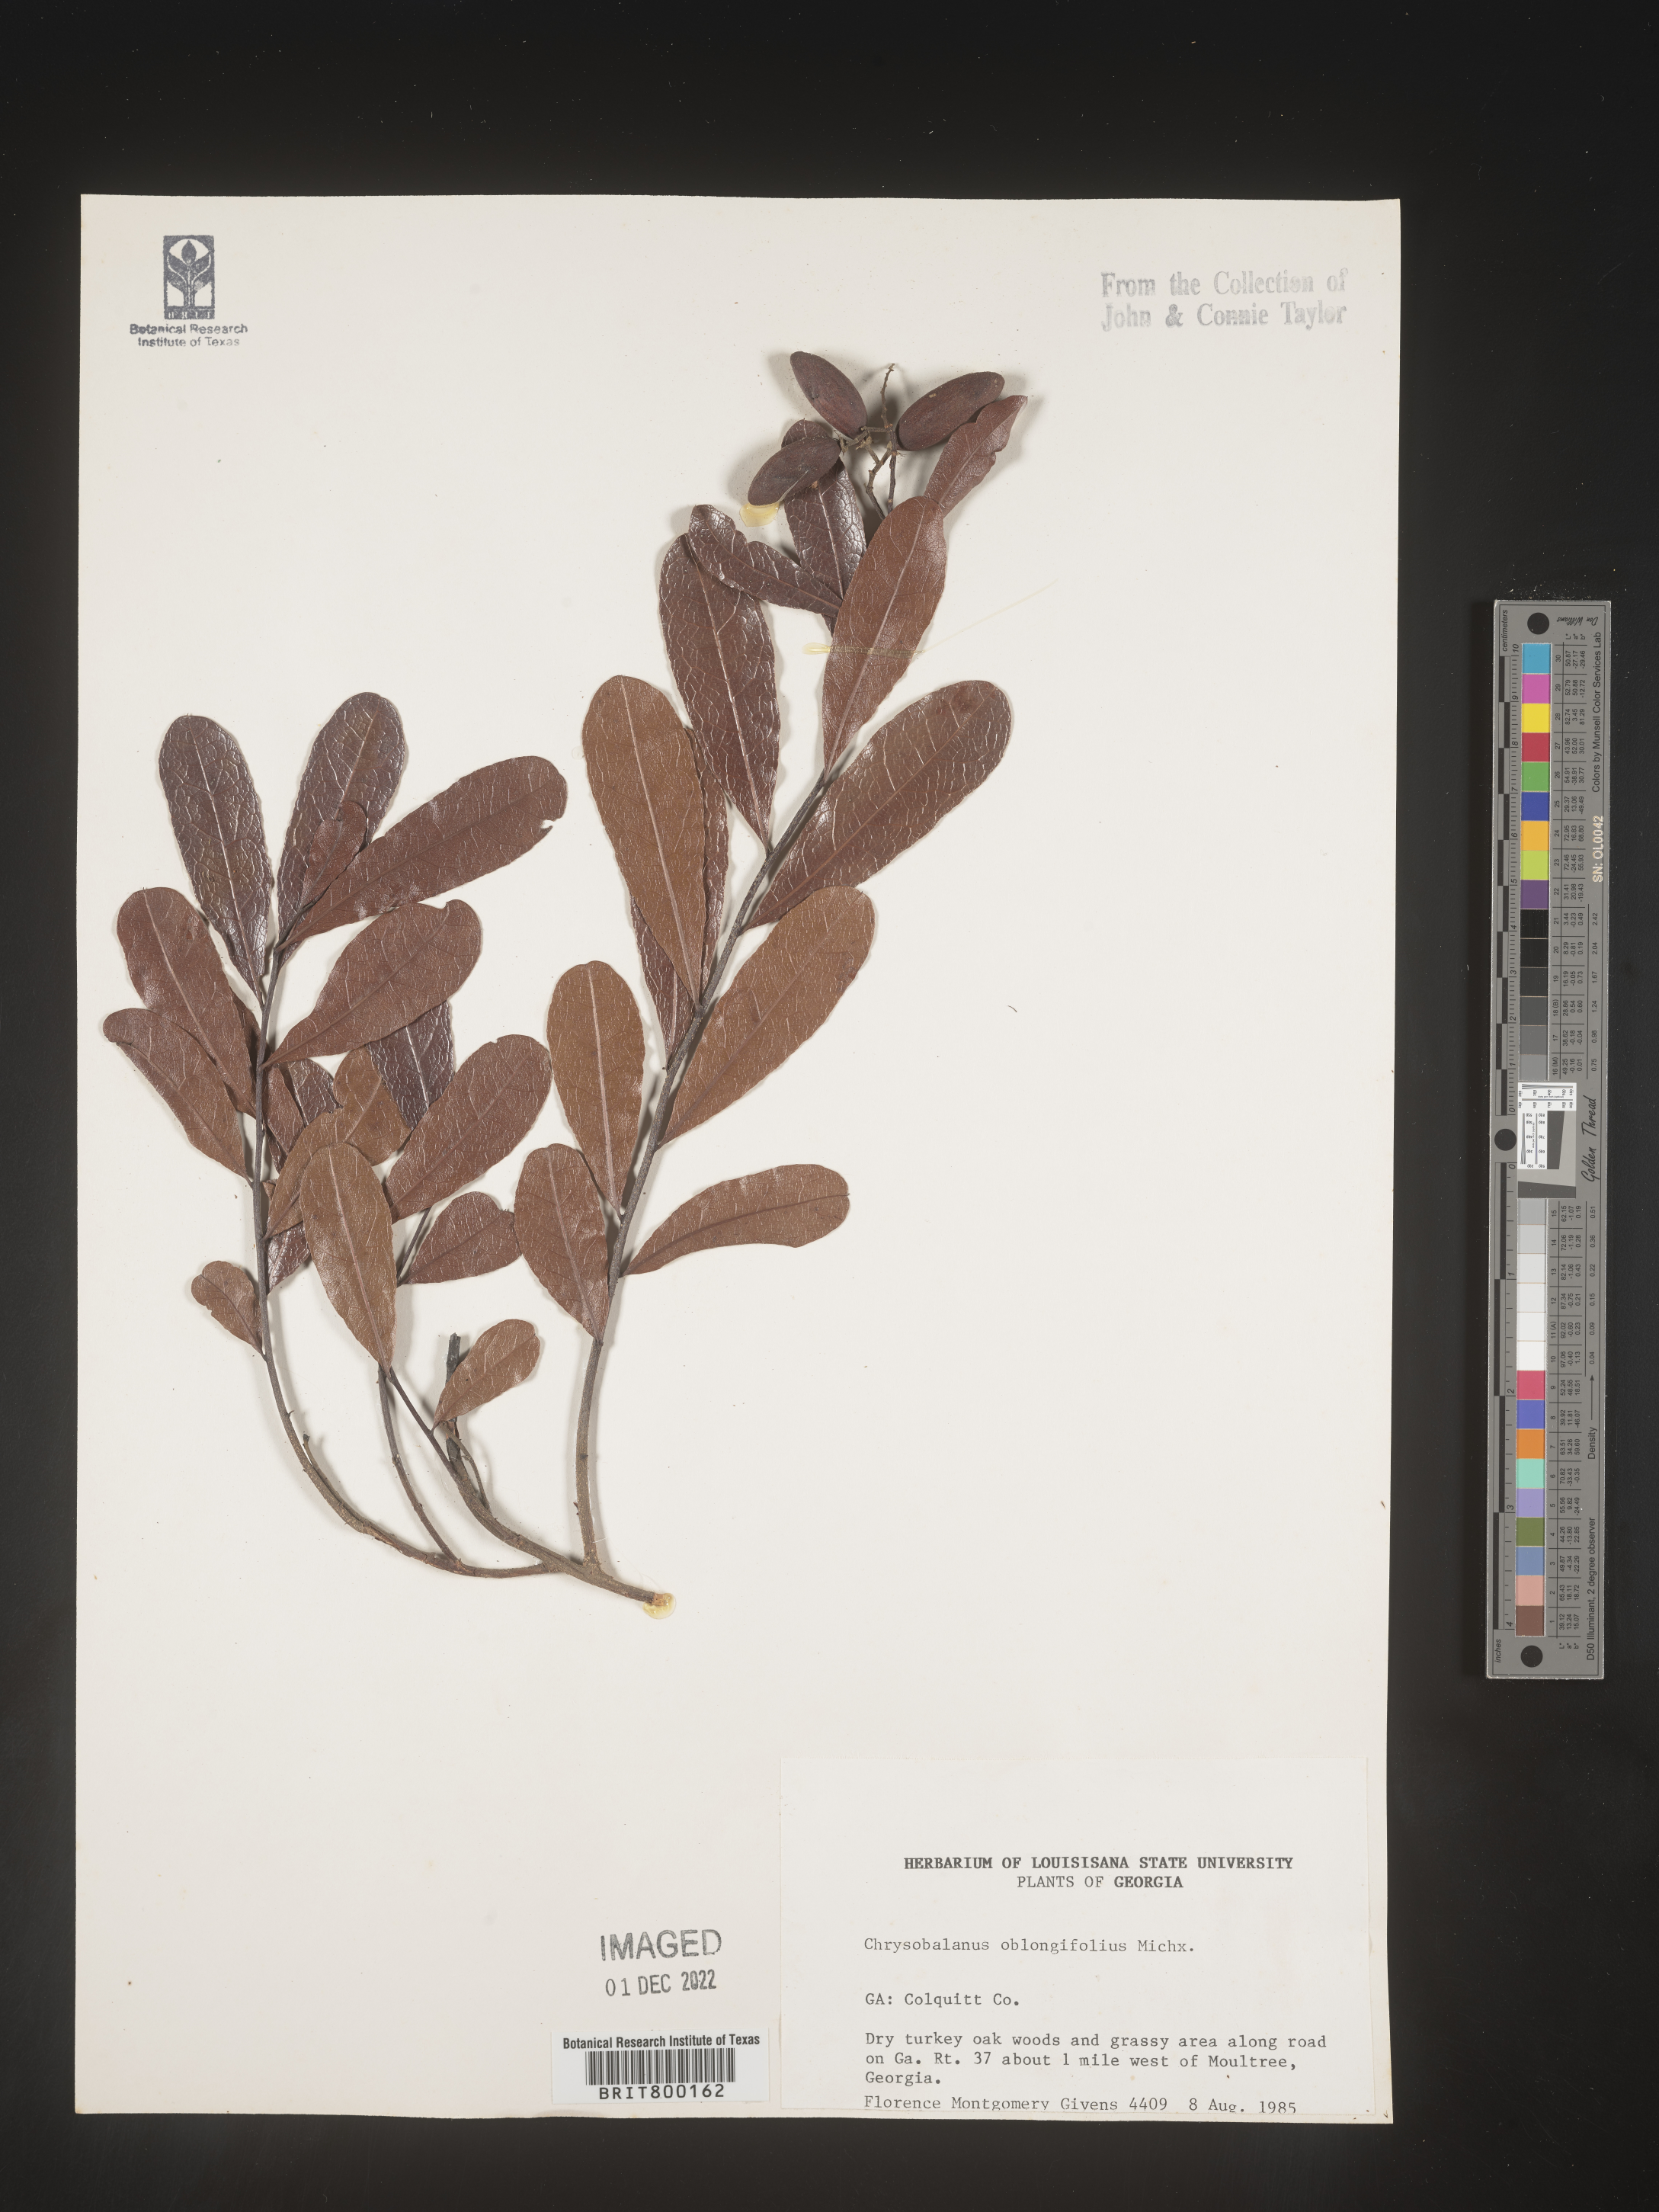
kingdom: Plantae
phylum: Tracheophyta
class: Magnoliopsida
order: Malpighiales
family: Chrysobalanaceae
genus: Geobalanus
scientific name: Geobalanus oblongifolius
